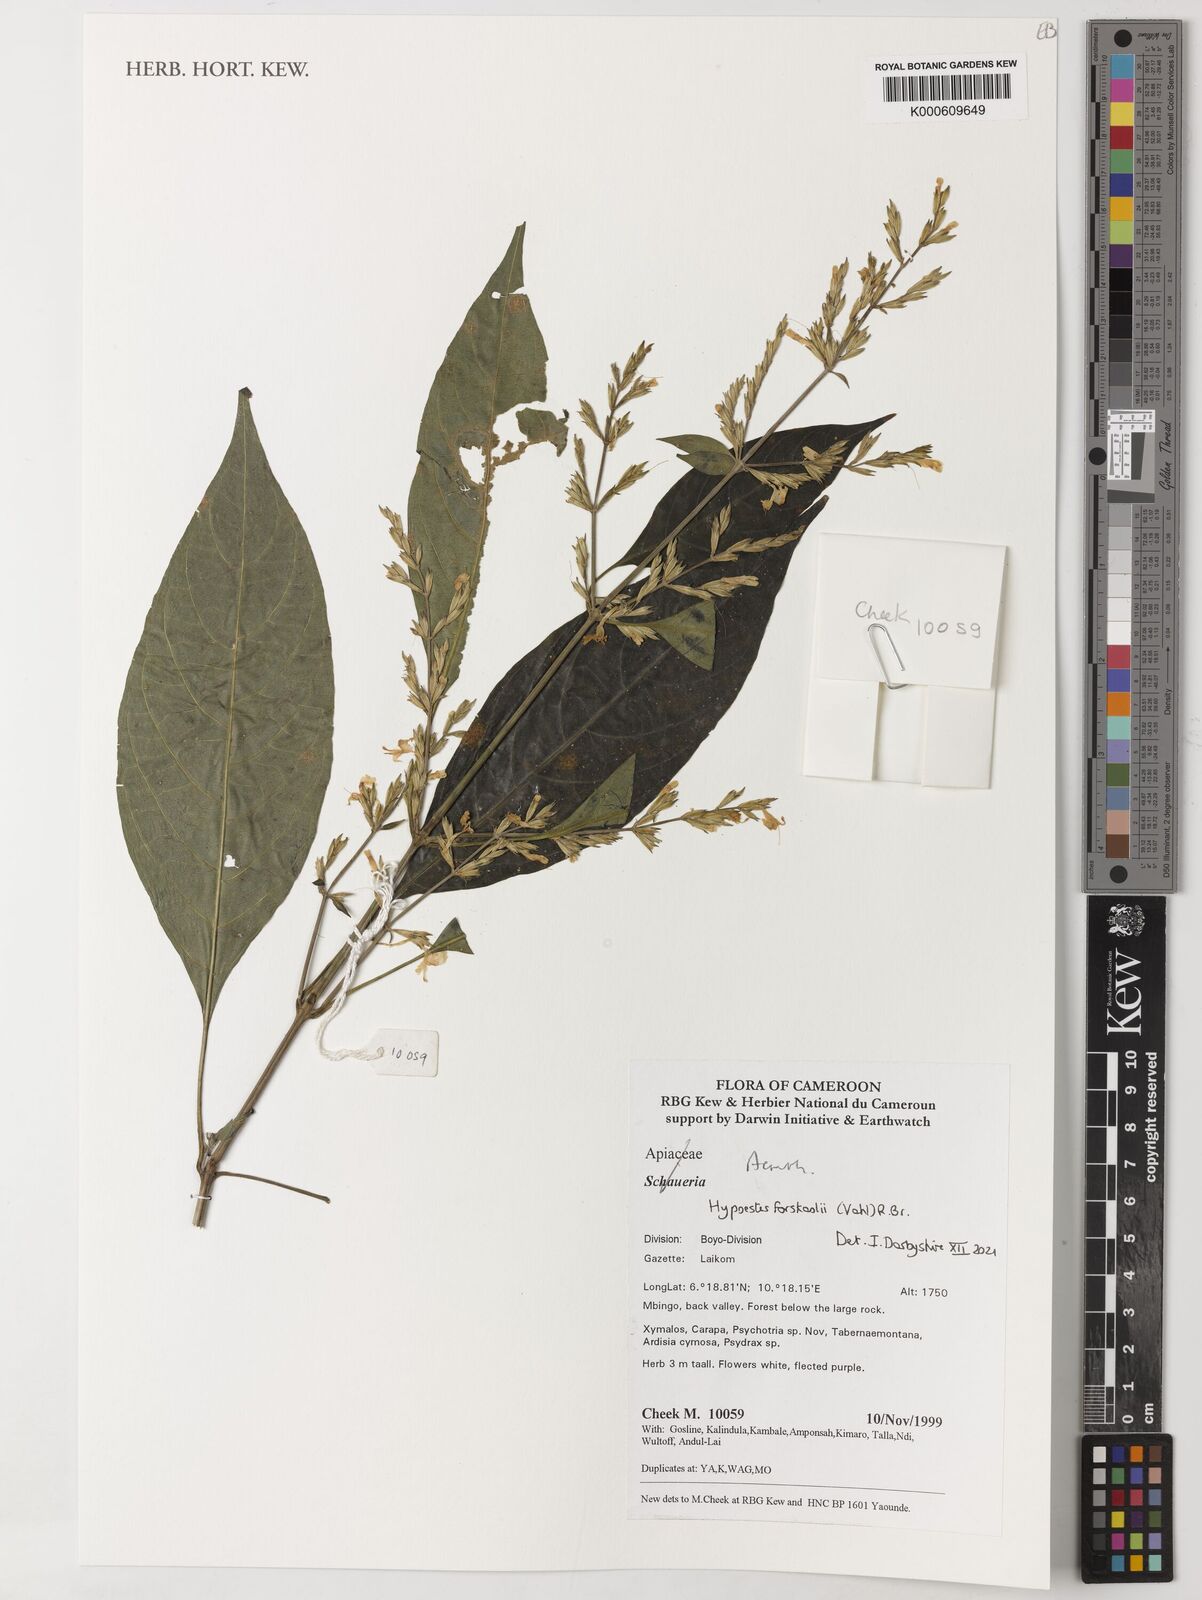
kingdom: Plantae
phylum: Tracheophyta
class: Magnoliopsida
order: Lamiales
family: Acanthaceae
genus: Hypoestes
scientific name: Hypoestes forskaolii
